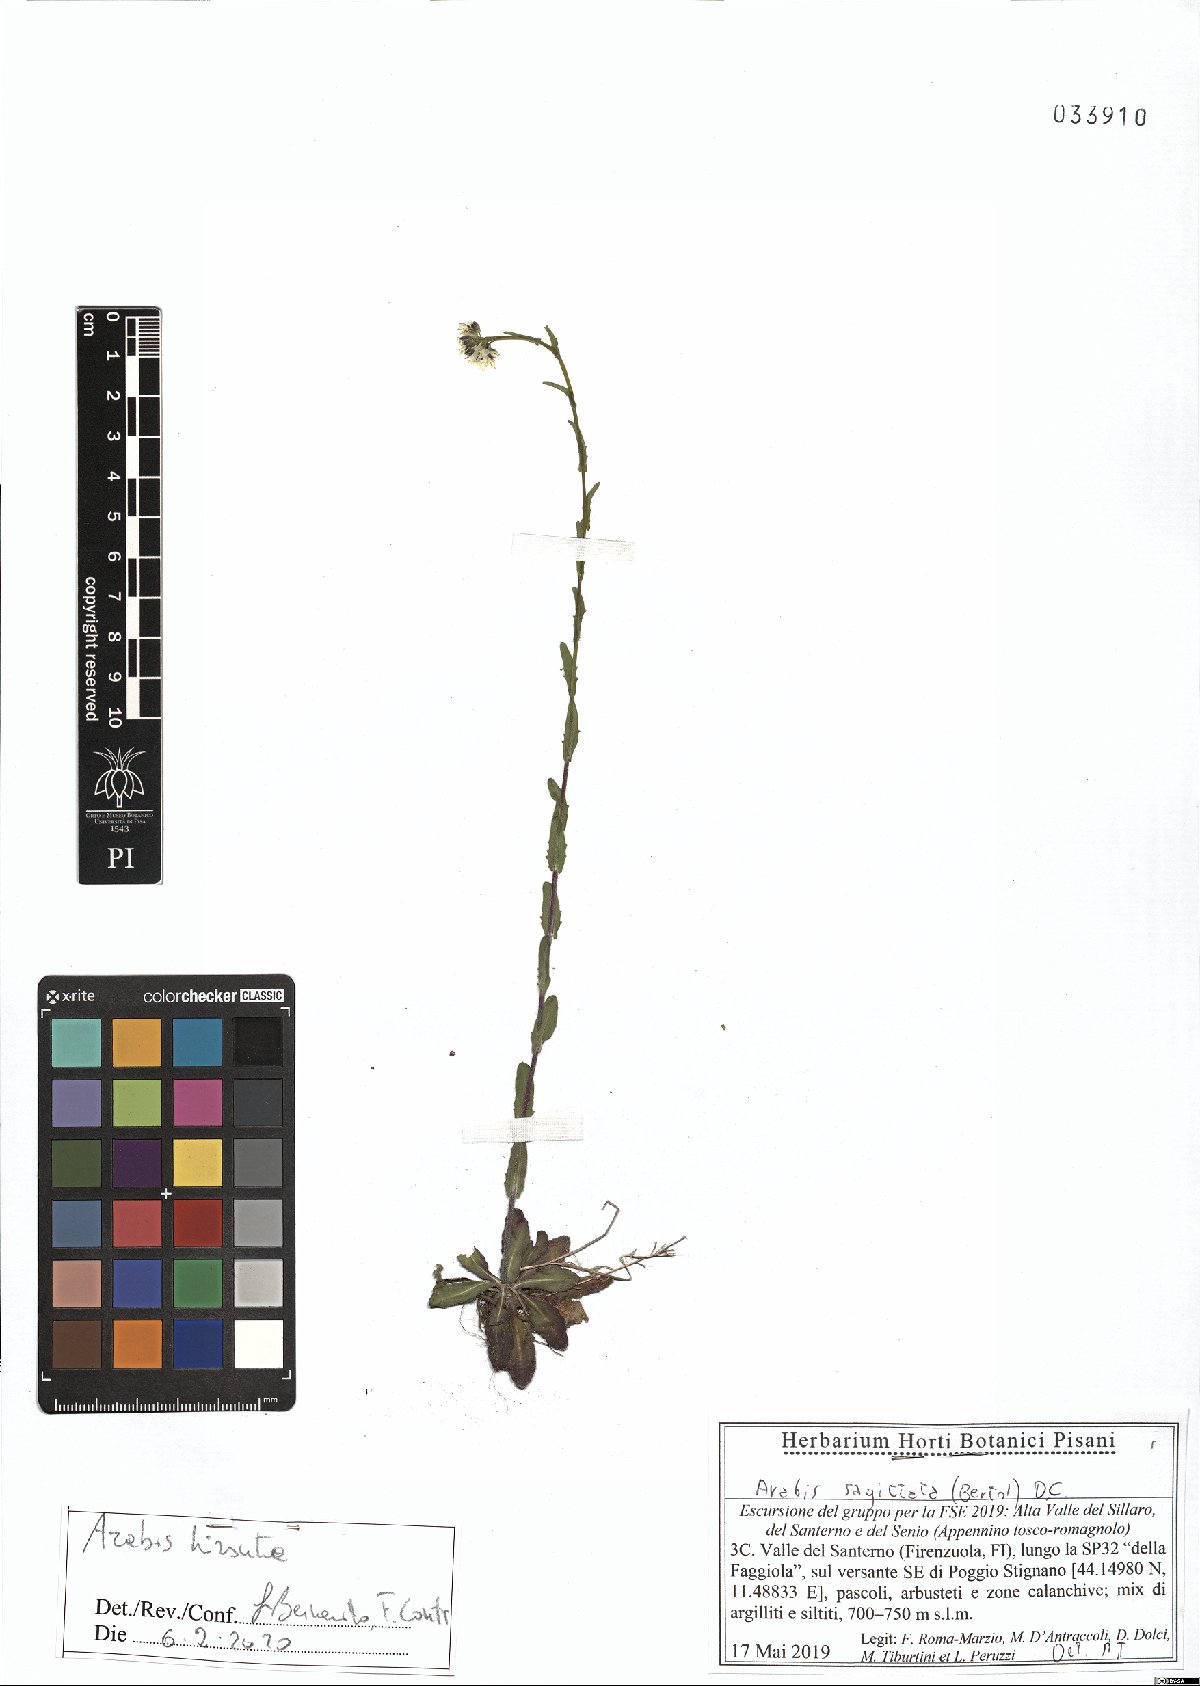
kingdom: Plantae
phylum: Tracheophyta
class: Magnoliopsida
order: Brassicales
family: Brassicaceae
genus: Arabis
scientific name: Arabis hirsuta
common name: Hairy rock-cress
